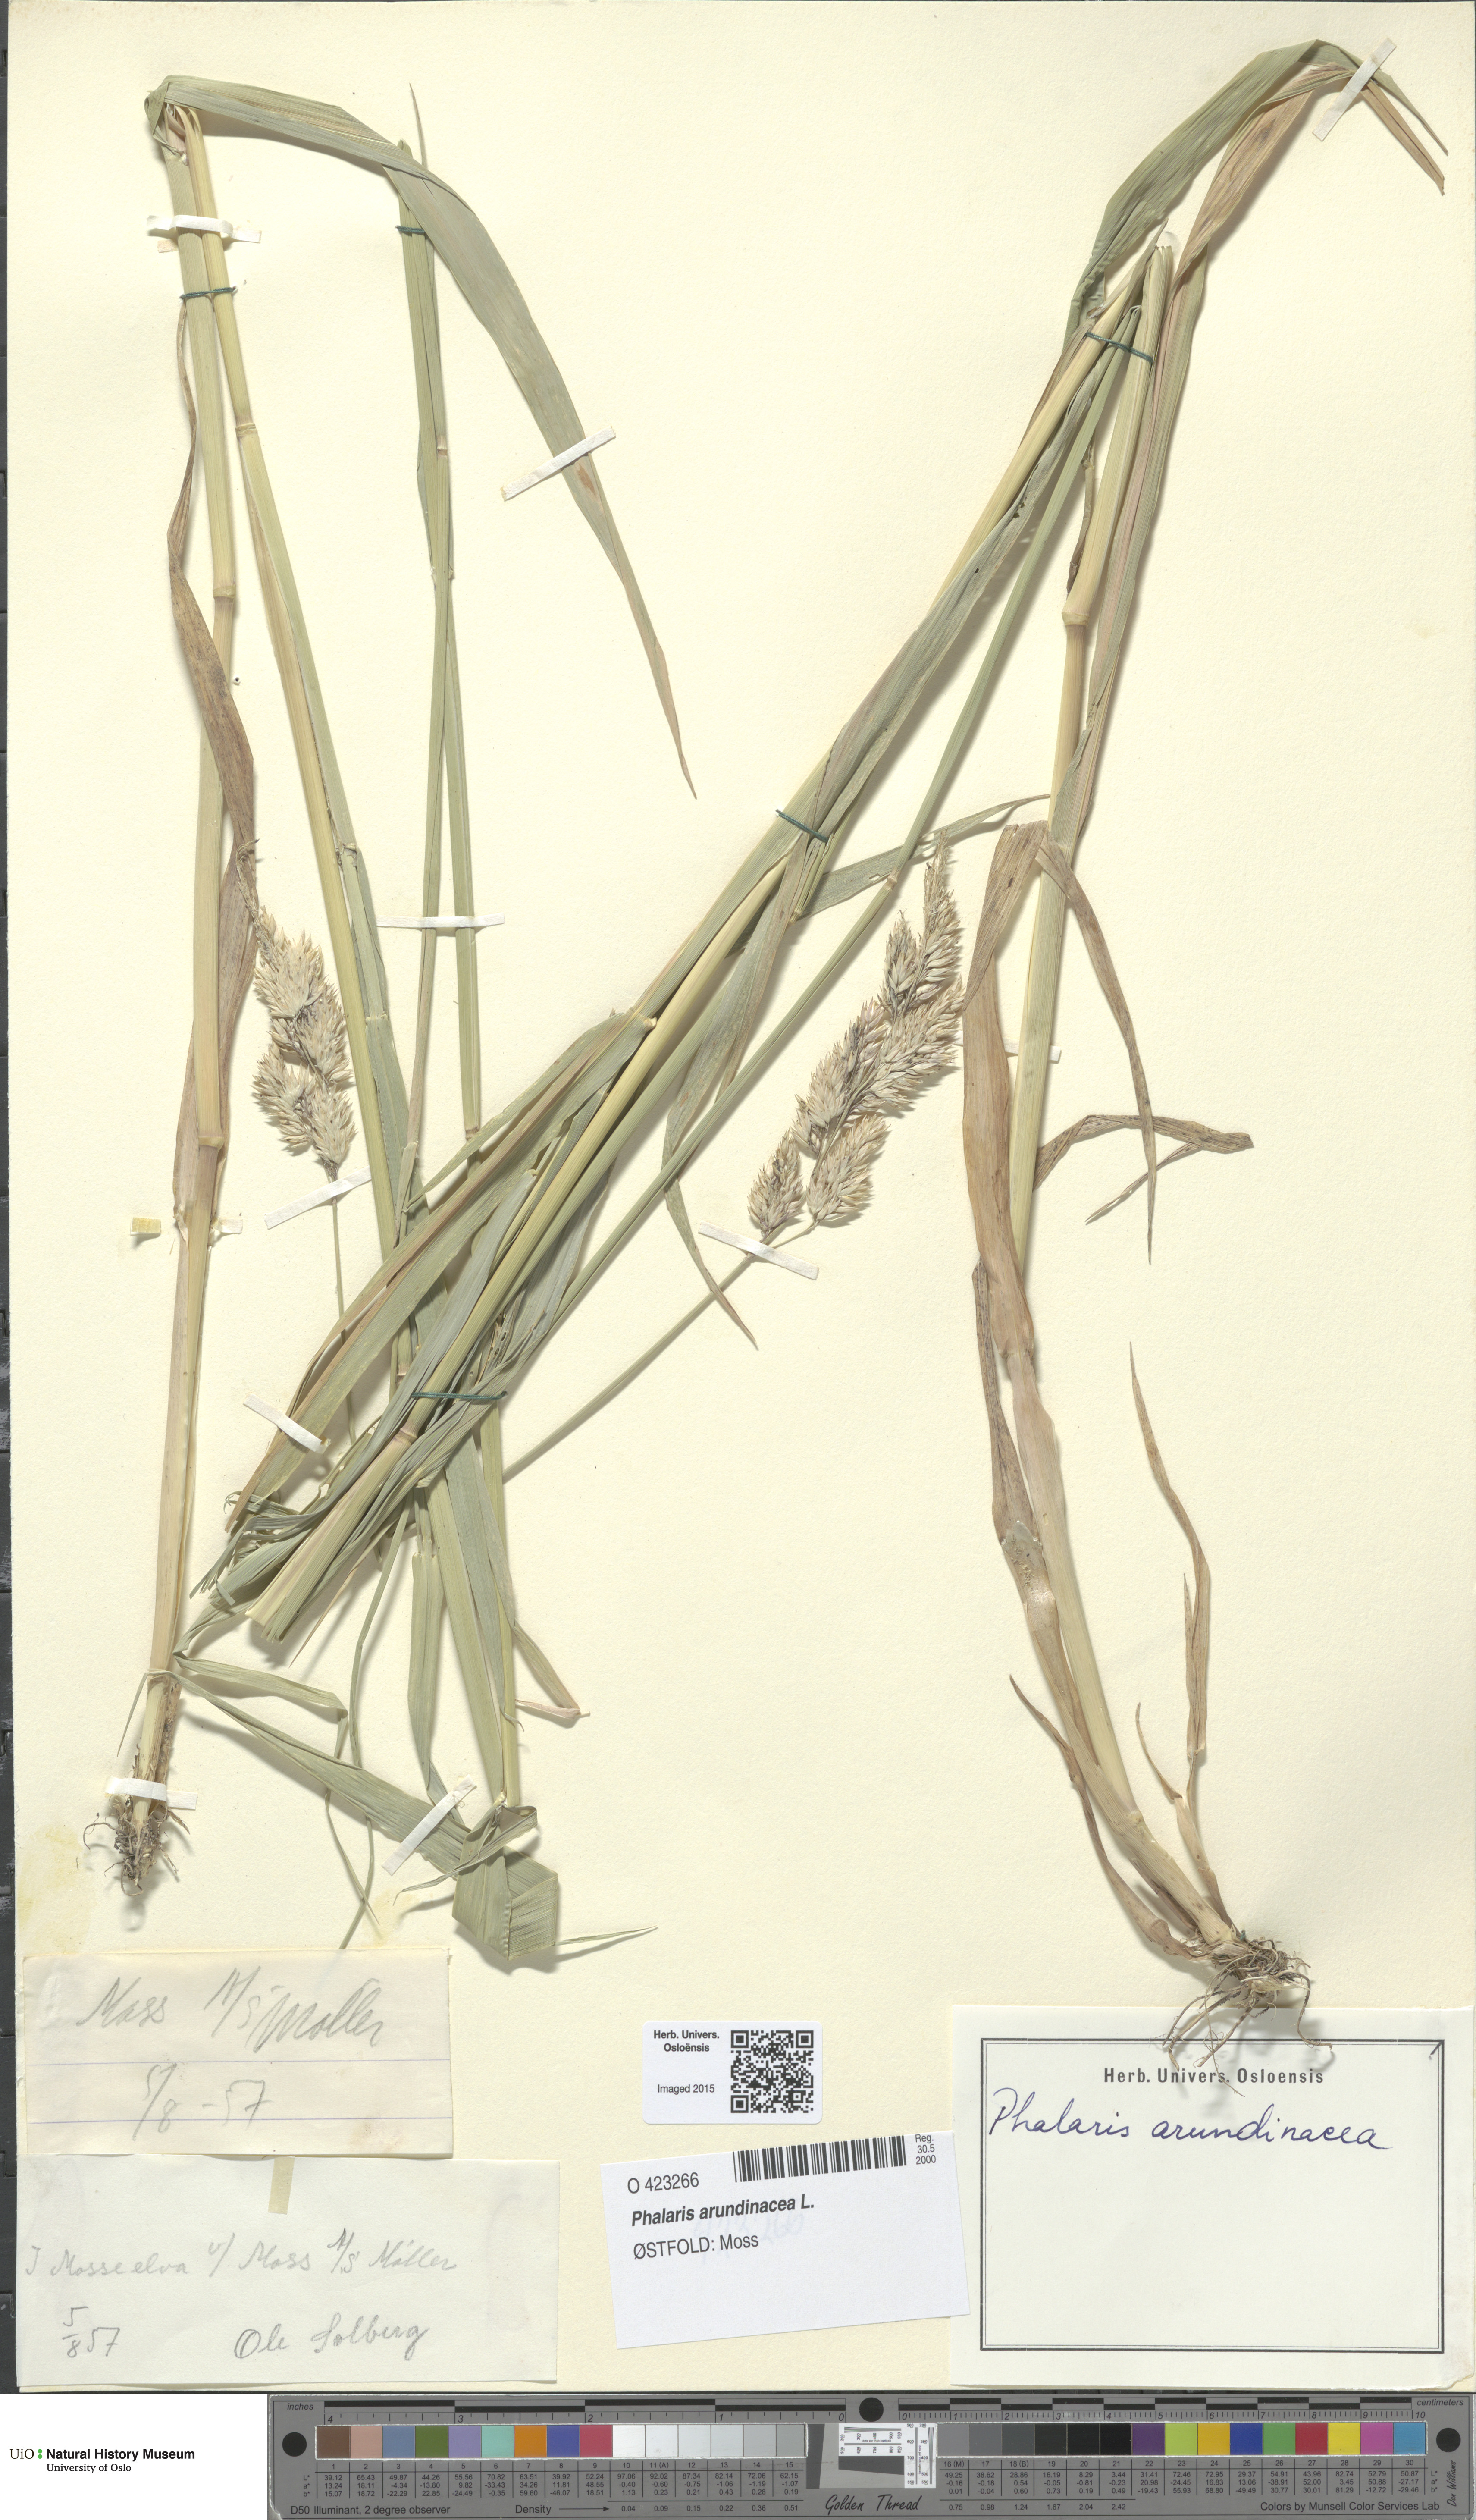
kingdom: Plantae
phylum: Tracheophyta
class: Liliopsida
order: Poales
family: Poaceae
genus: Phalaris
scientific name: Phalaris arundinacea
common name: Reed canary-grass
